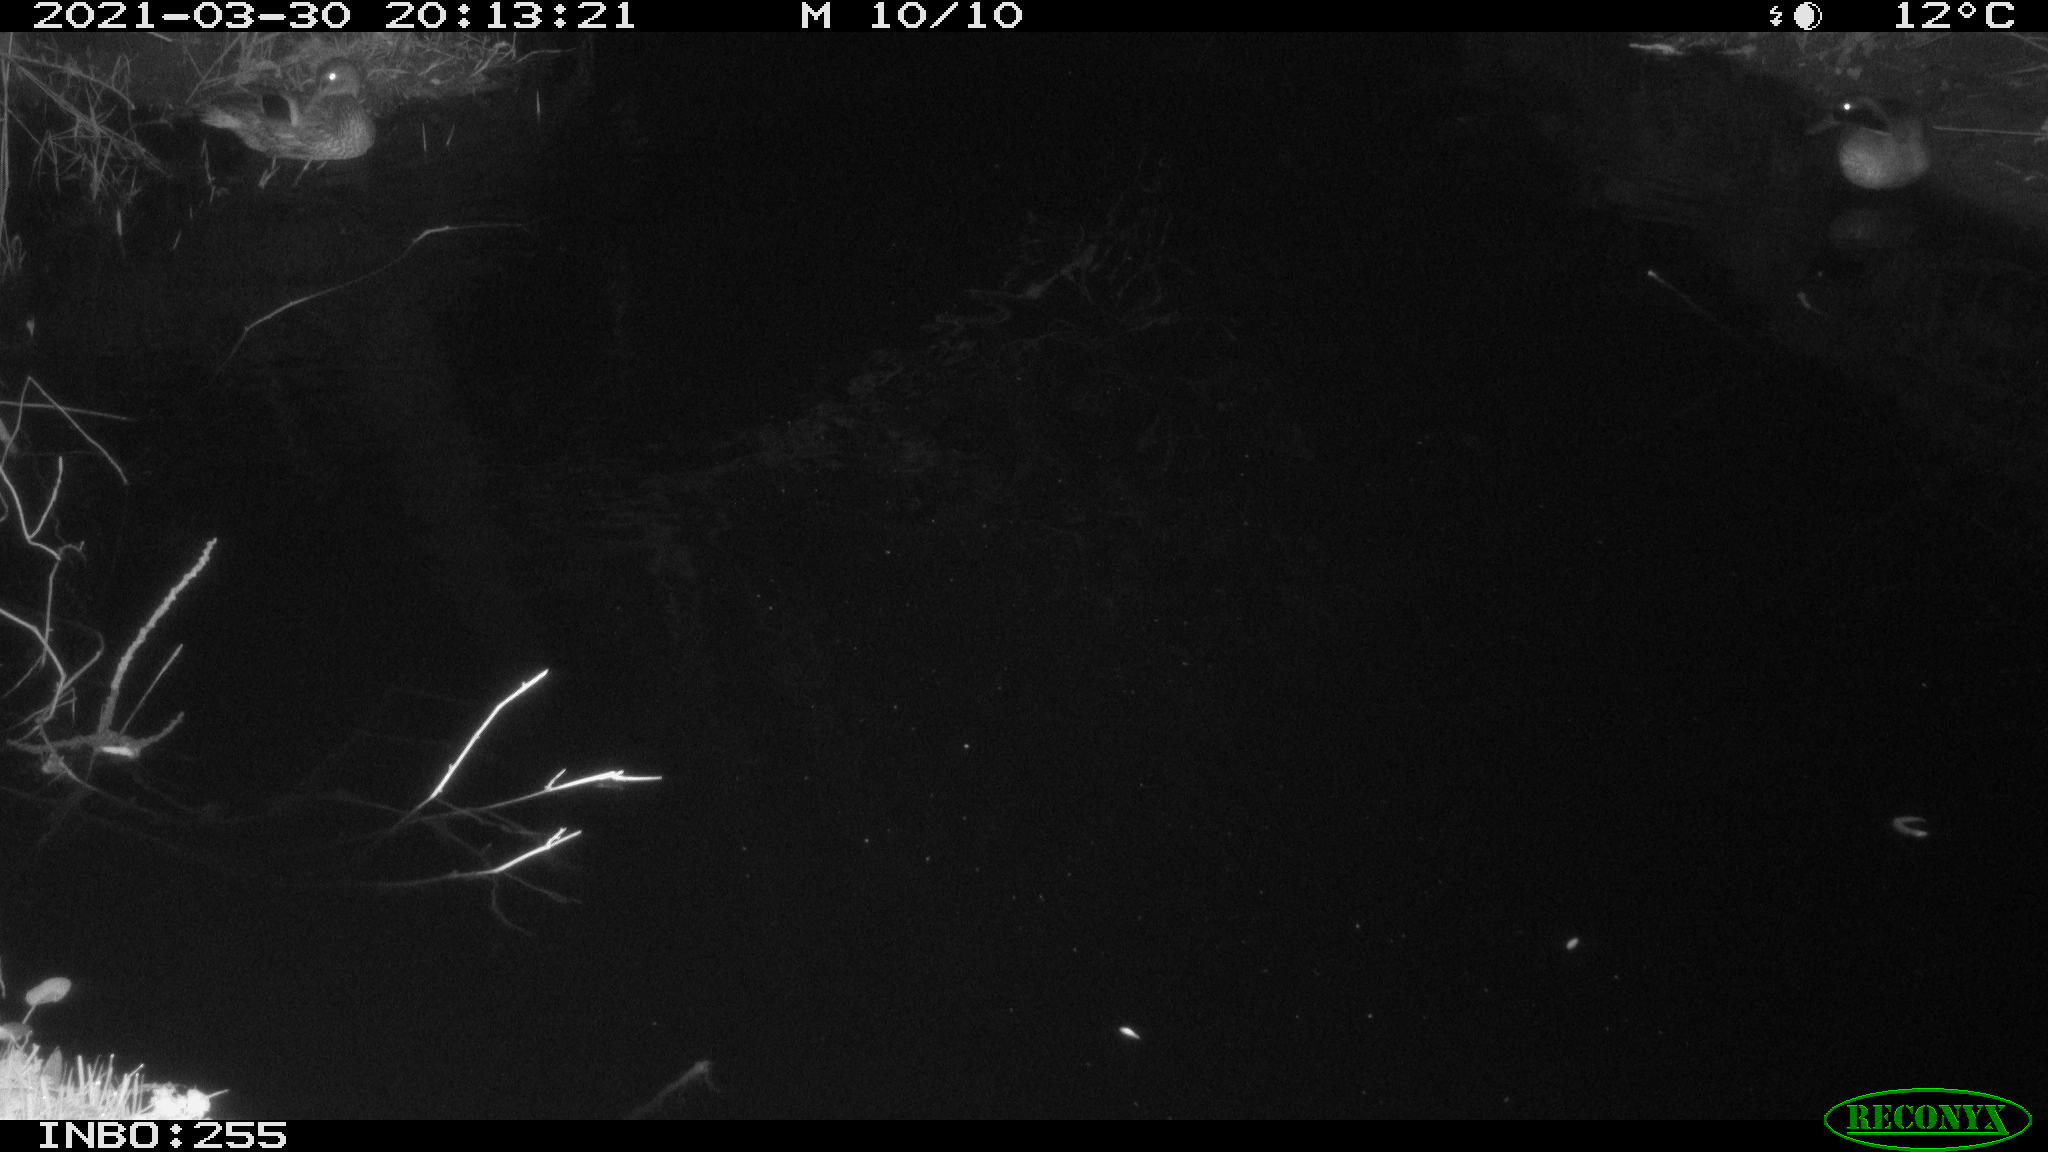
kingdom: Animalia
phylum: Chordata
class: Aves
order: Anseriformes
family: Anatidae
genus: Anas
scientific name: Anas platyrhynchos
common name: Mallard
